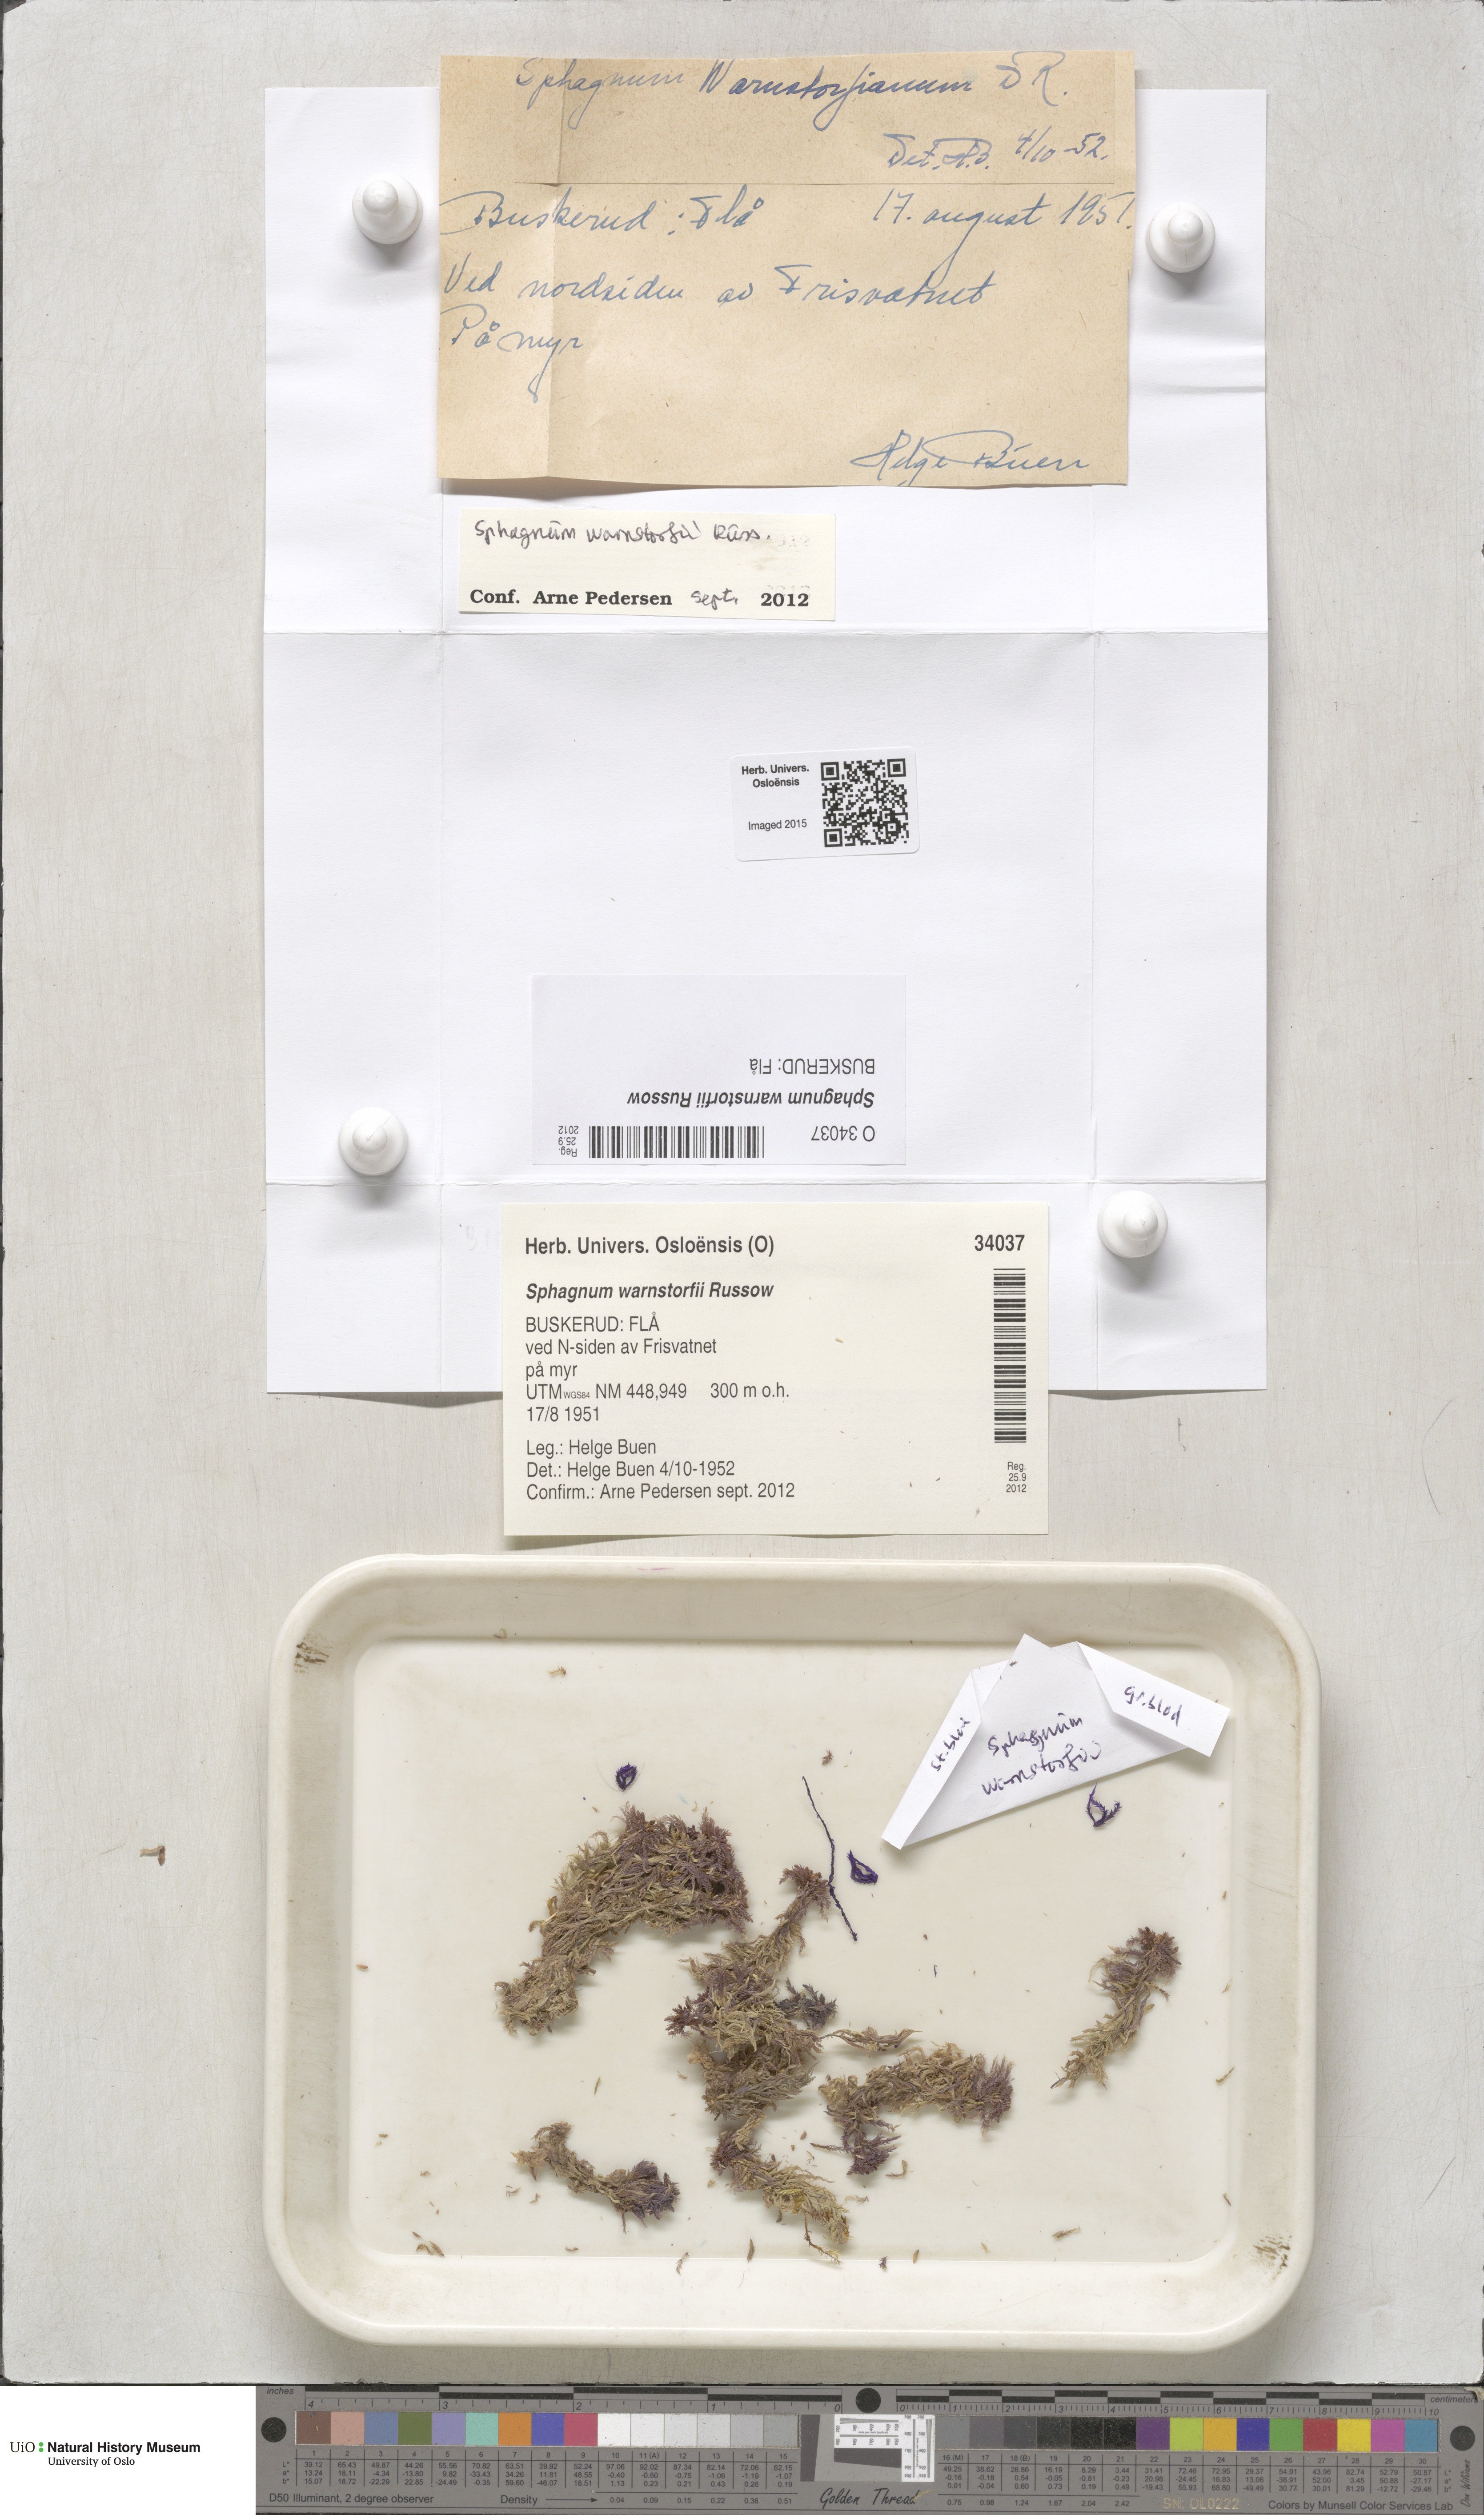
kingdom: Plantae
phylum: Bryophyta
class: Sphagnopsida
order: Sphagnales
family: Sphagnaceae
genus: Sphagnum
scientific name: Sphagnum warnstorfii
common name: Warnstorf's peat moss
